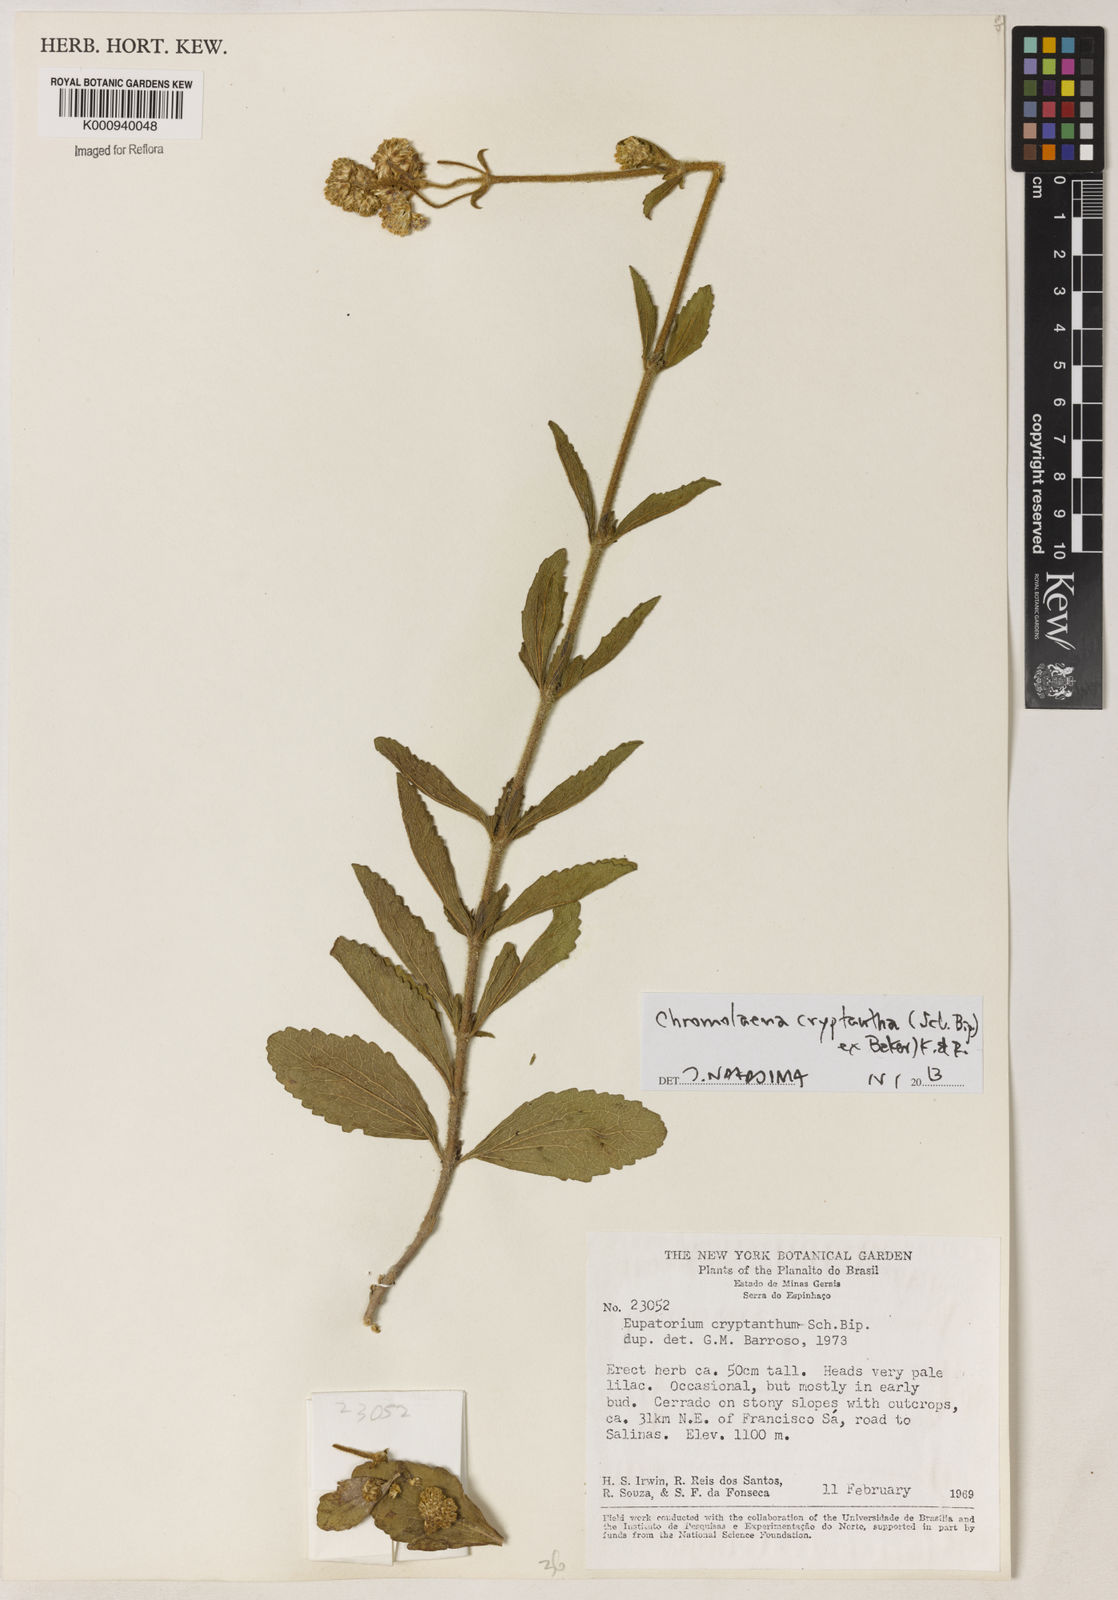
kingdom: Plantae
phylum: Tracheophyta
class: Magnoliopsida
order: Asterales
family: Asteraceae
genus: Chromolaena
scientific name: Chromolaena cryptantha
